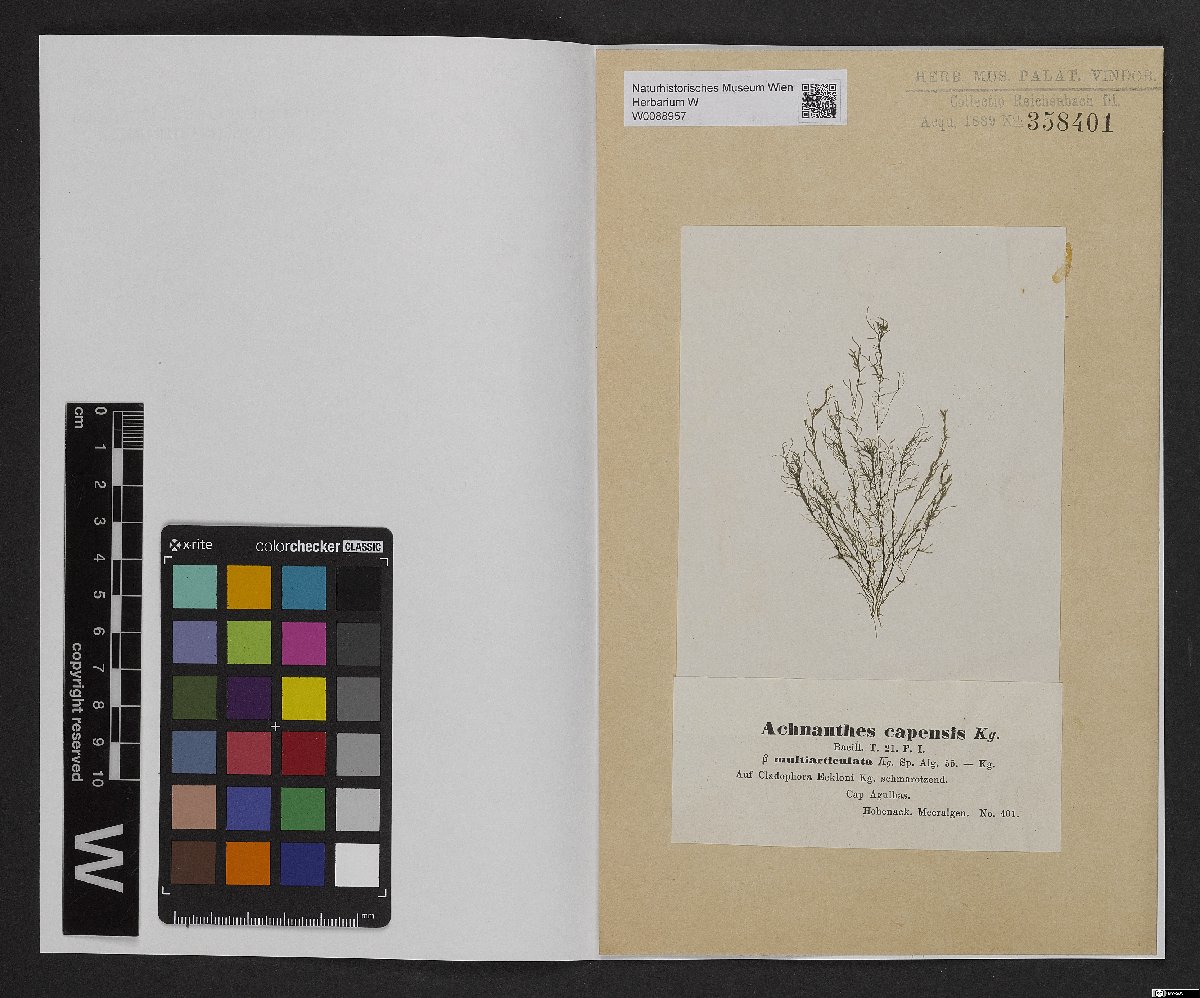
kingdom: Chromista
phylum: Ochrophyta
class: Bacillariophyceae
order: Achnanthales
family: Achnanthaceae
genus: Achnanthes
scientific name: Achnanthes capensis
